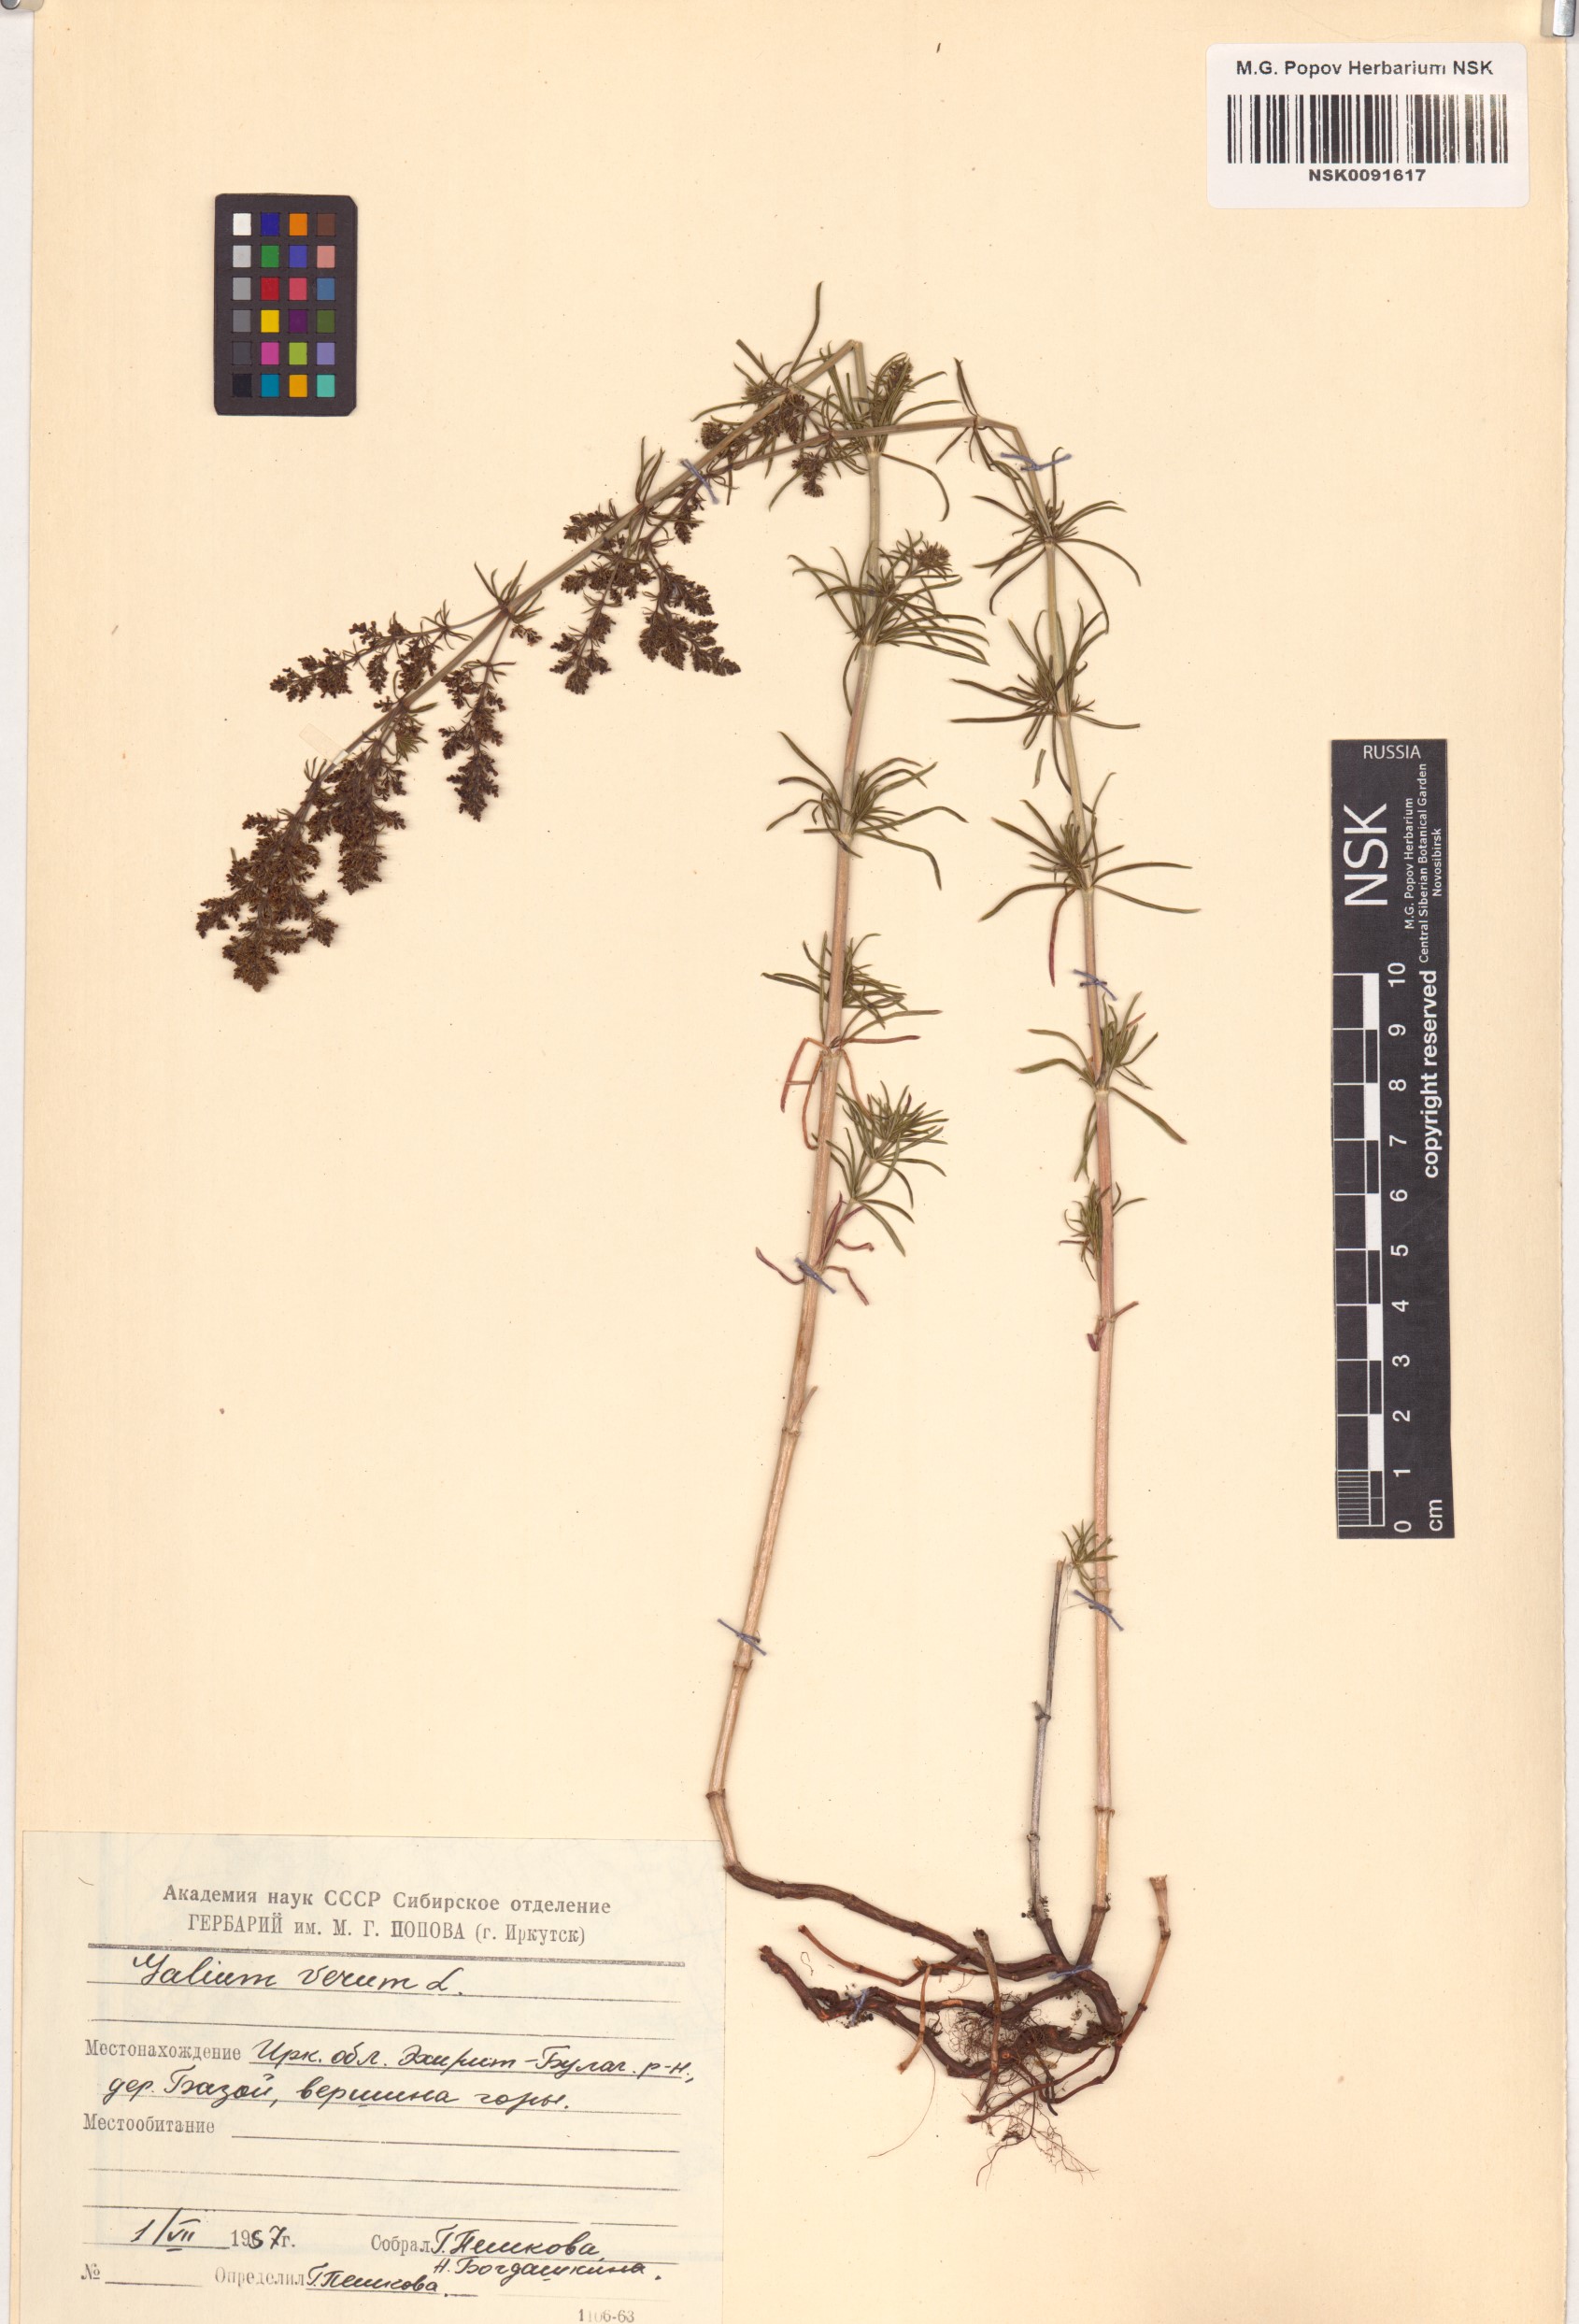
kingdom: Plantae
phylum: Tracheophyta
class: Magnoliopsida
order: Gentianales
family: Rubiaceae
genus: Galium
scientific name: Galium verum
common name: Lady's bedstraw
